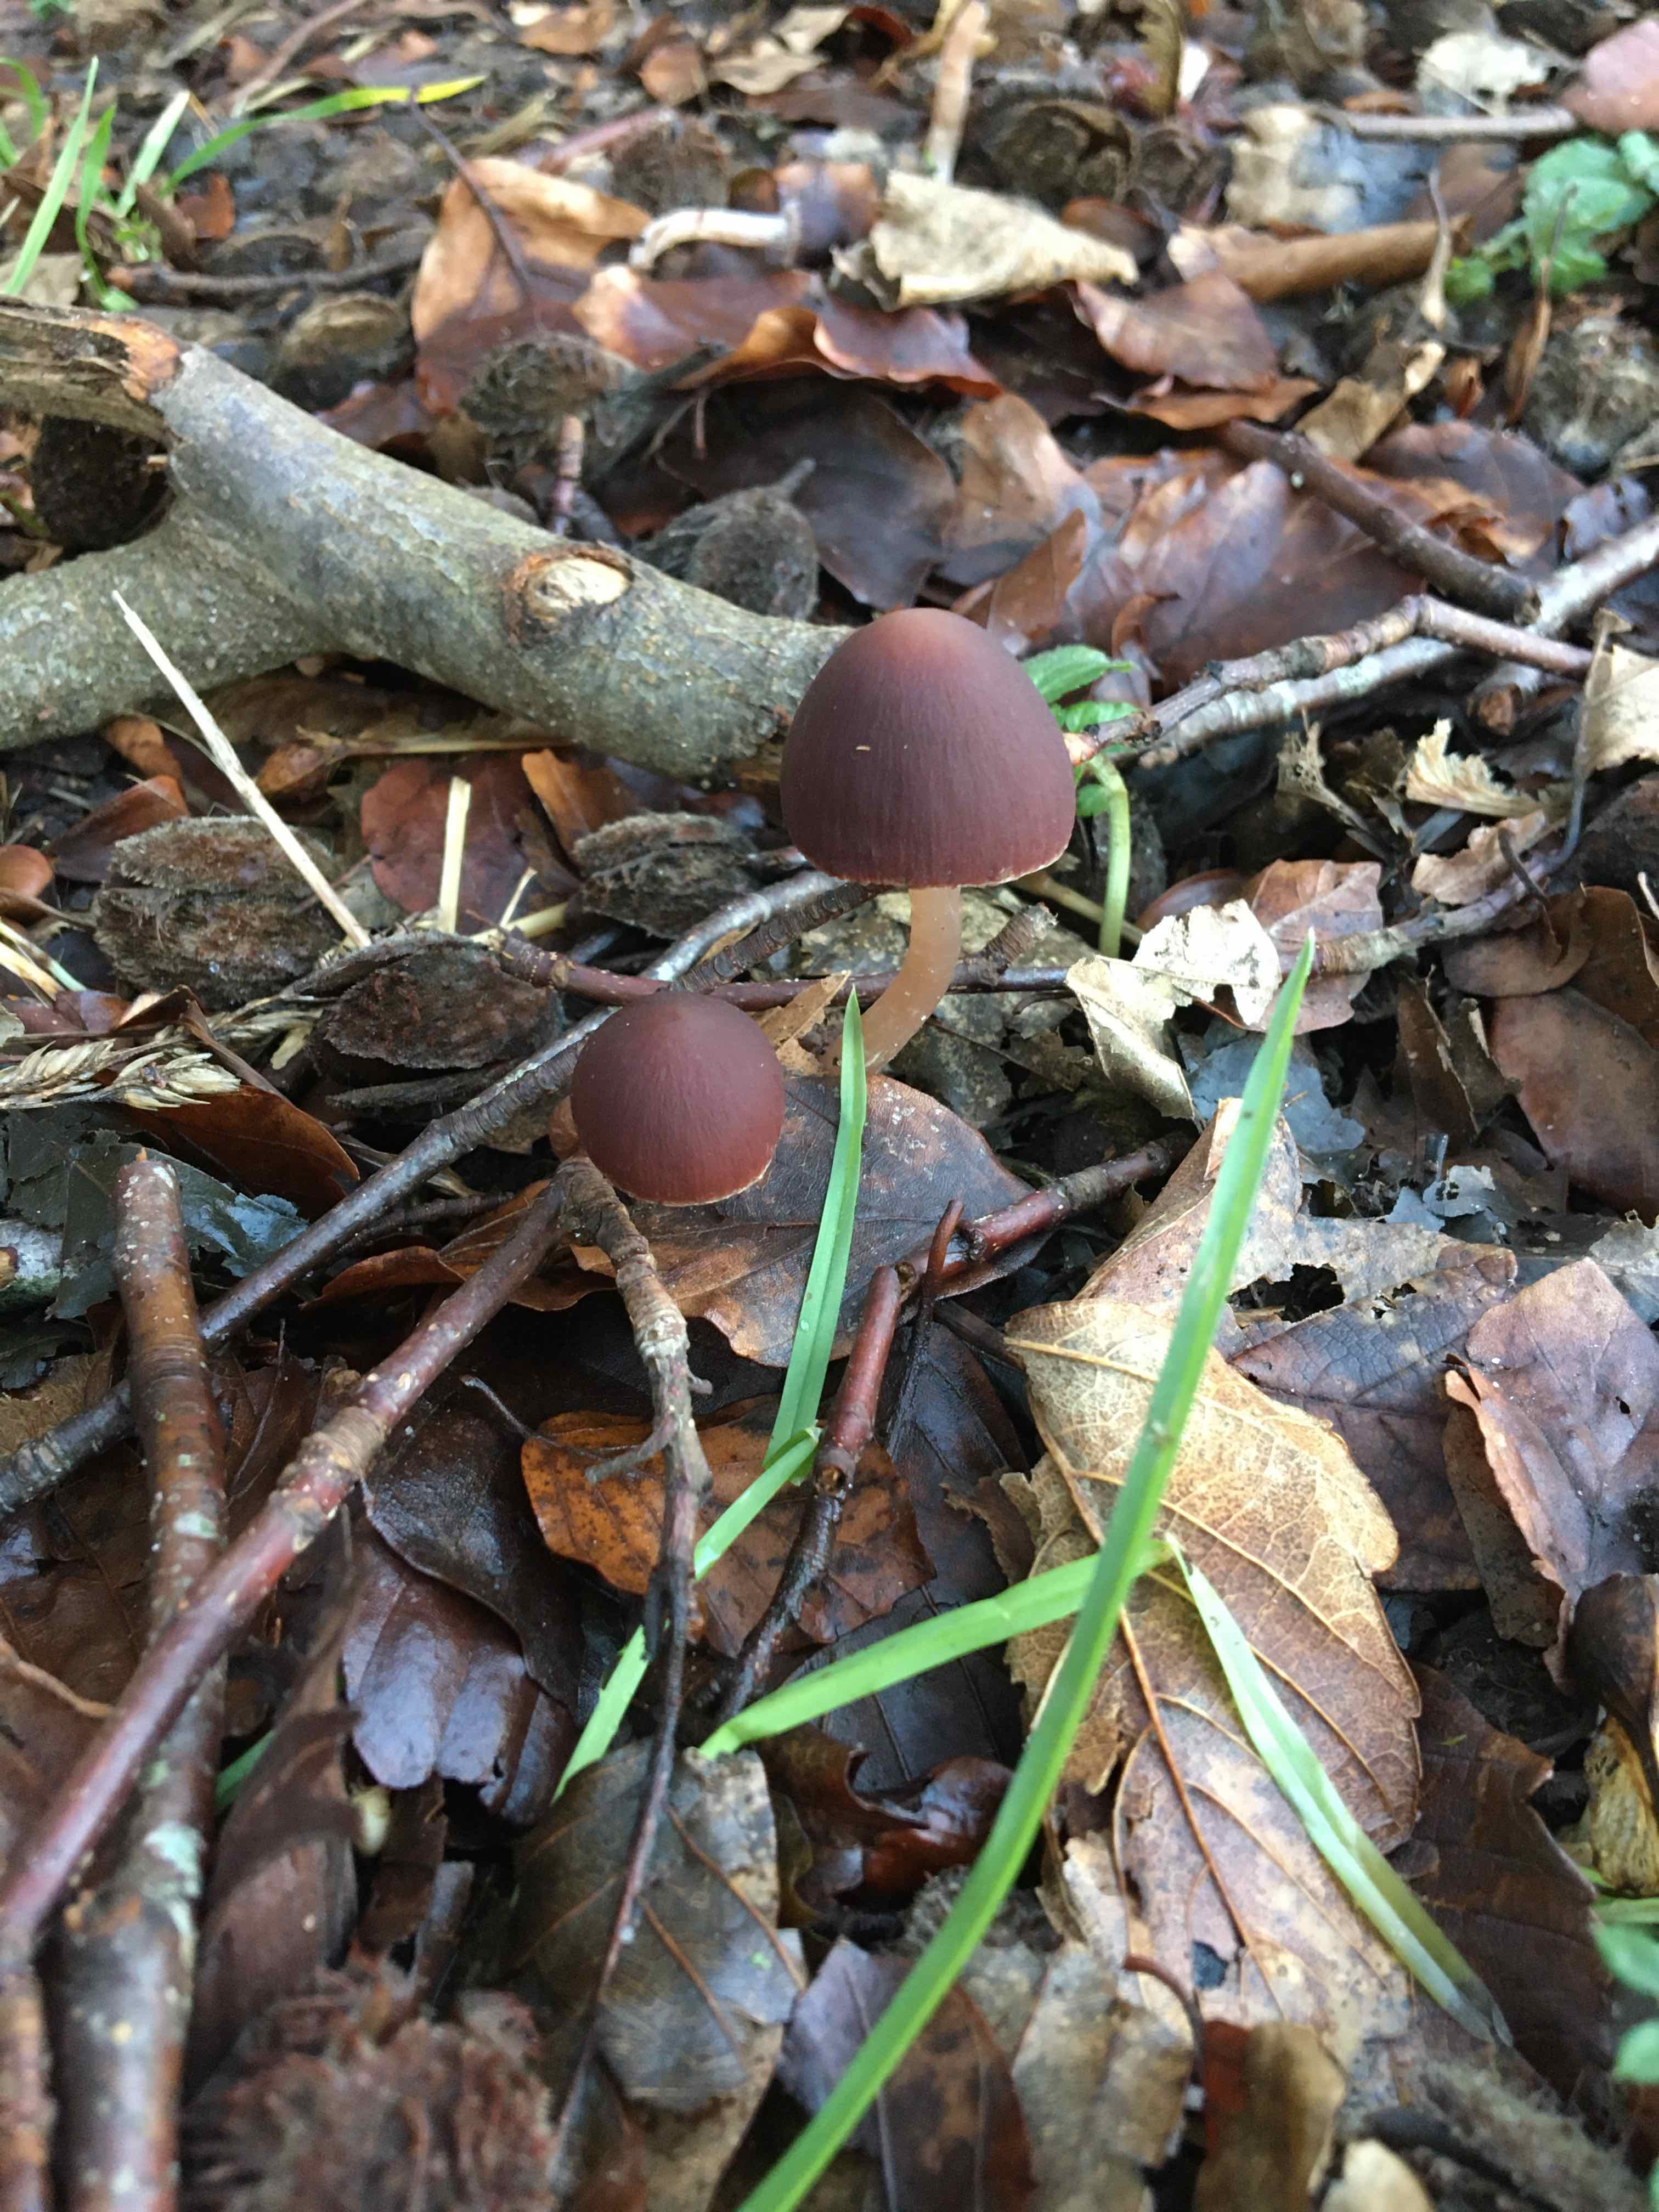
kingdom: Fungi
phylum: Basidiomycota
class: Agaricomycetes
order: Agaricales
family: Psathyrellaceae
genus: Psathyrella
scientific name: Psathyrella bipellis
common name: vinrød mørkhat
